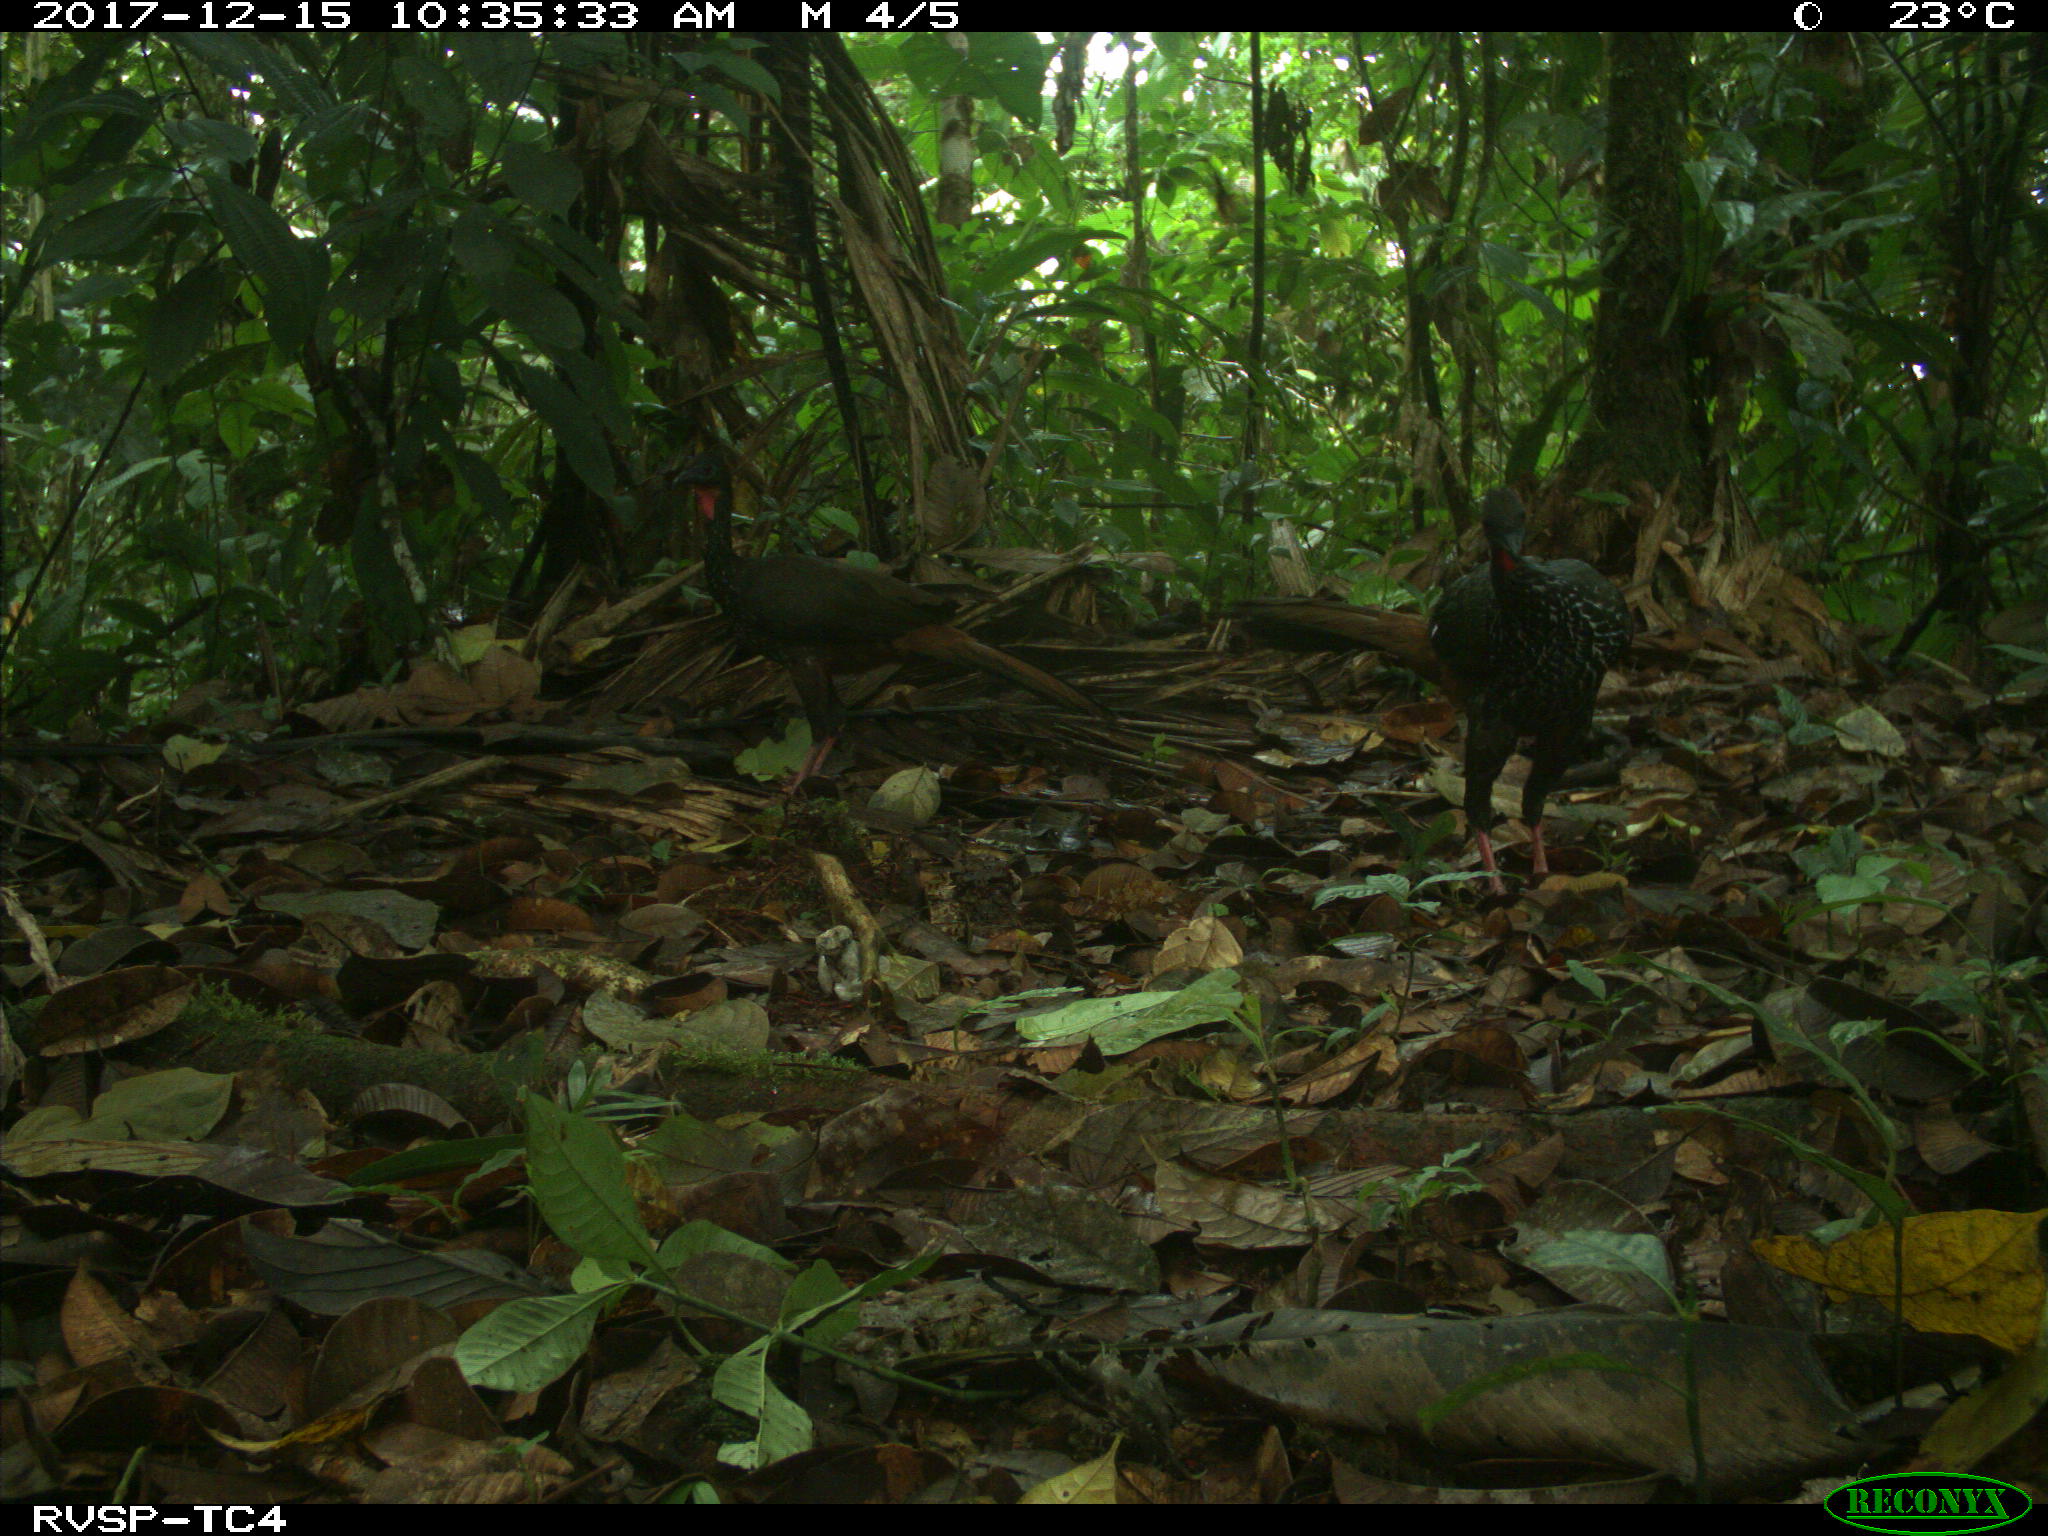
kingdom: Animalia
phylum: Chordata
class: Aves
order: Galliformes
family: Cracidae
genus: Penelope
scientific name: Penelope purpurascens
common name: Crested guan
